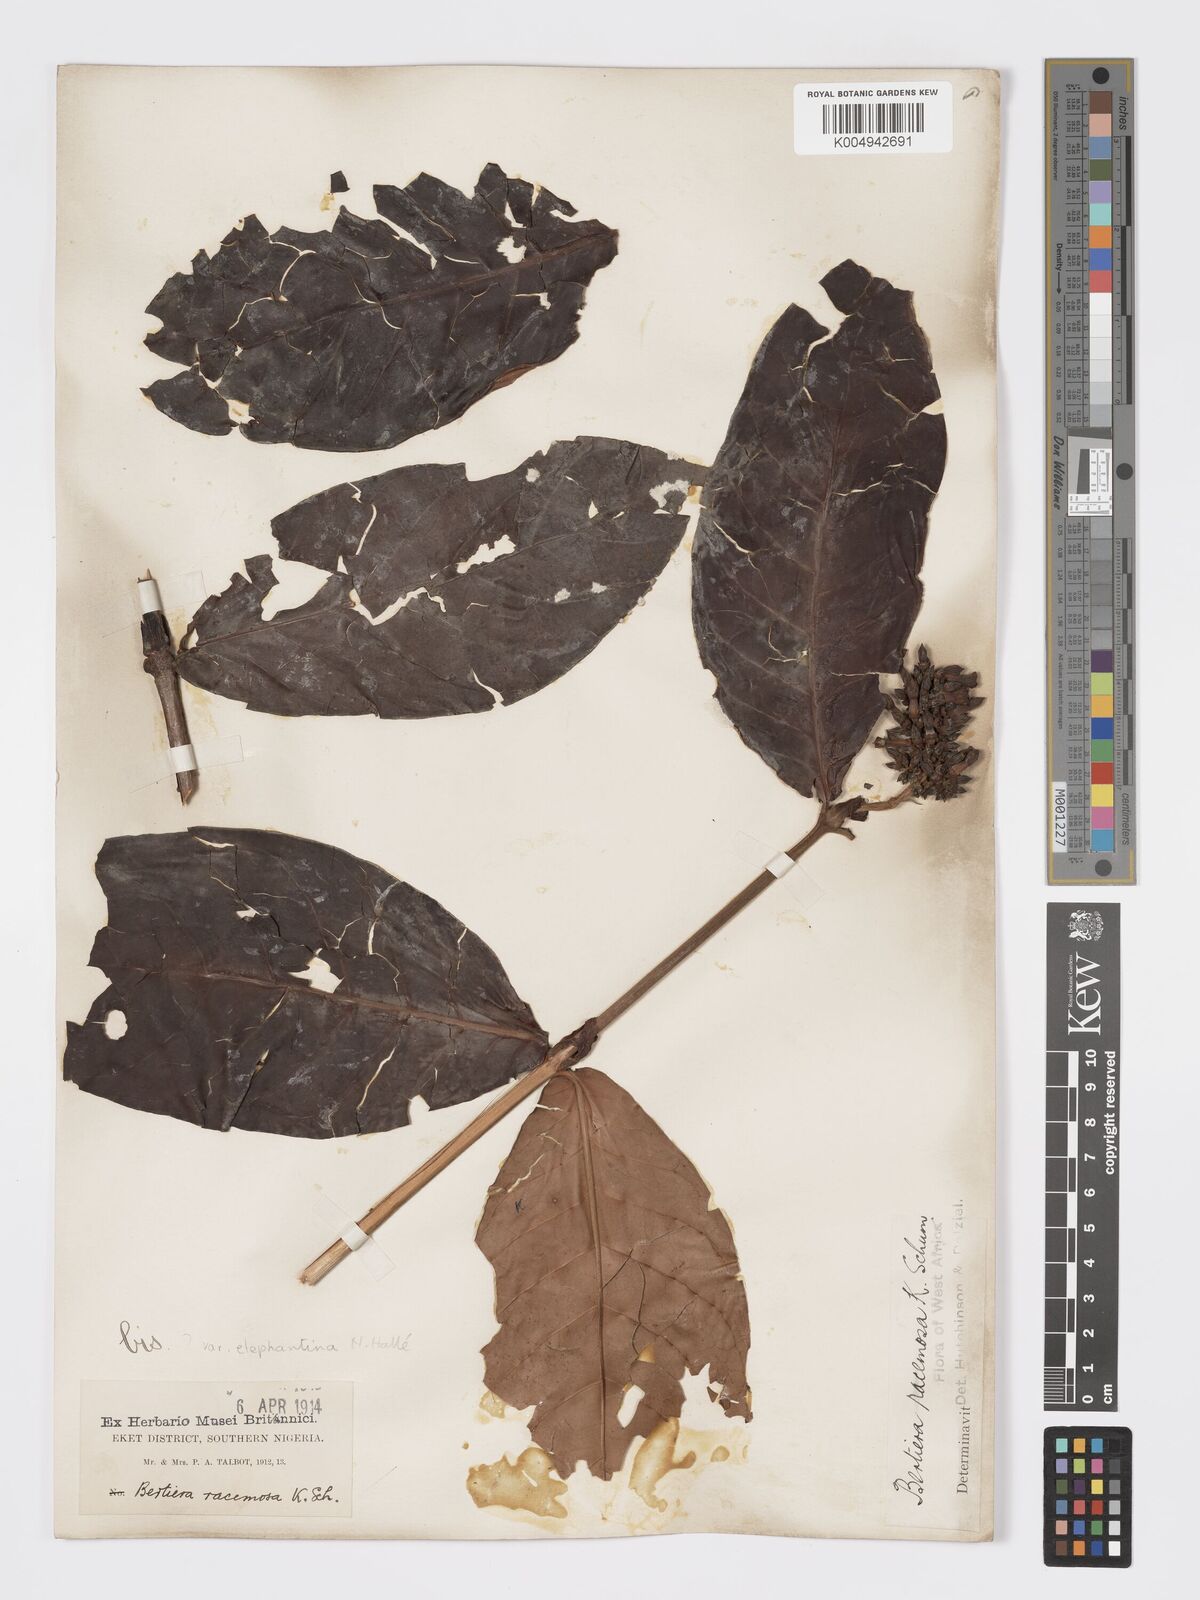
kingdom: Plantae
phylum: Tracheophyta
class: Magnoliopsida
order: Gentianales
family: Rubiaceae
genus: Bertiera
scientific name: Bertiera racemosa
